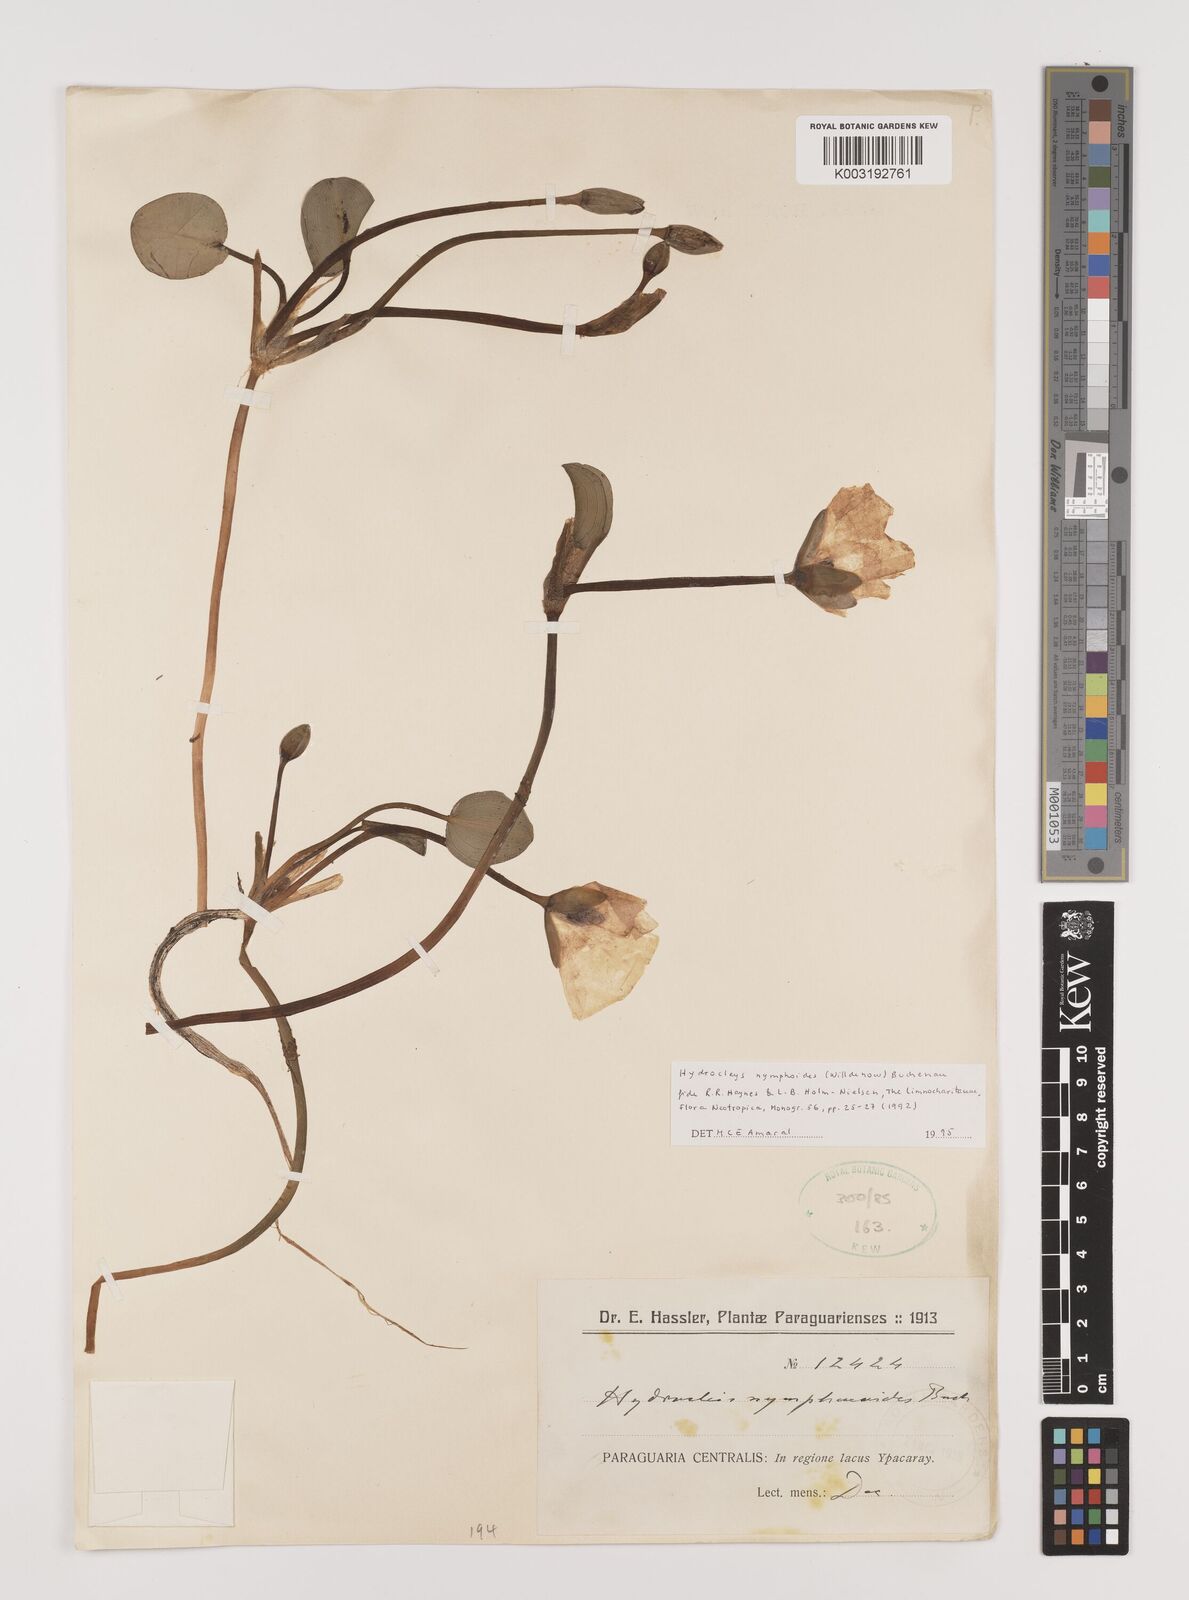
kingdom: Plantae
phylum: Tracheophyta
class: Liliopsida
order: Alismatales
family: Alismataceae
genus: Hydrocleys
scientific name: Hydrocleys nymphoides
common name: Water-poppy
